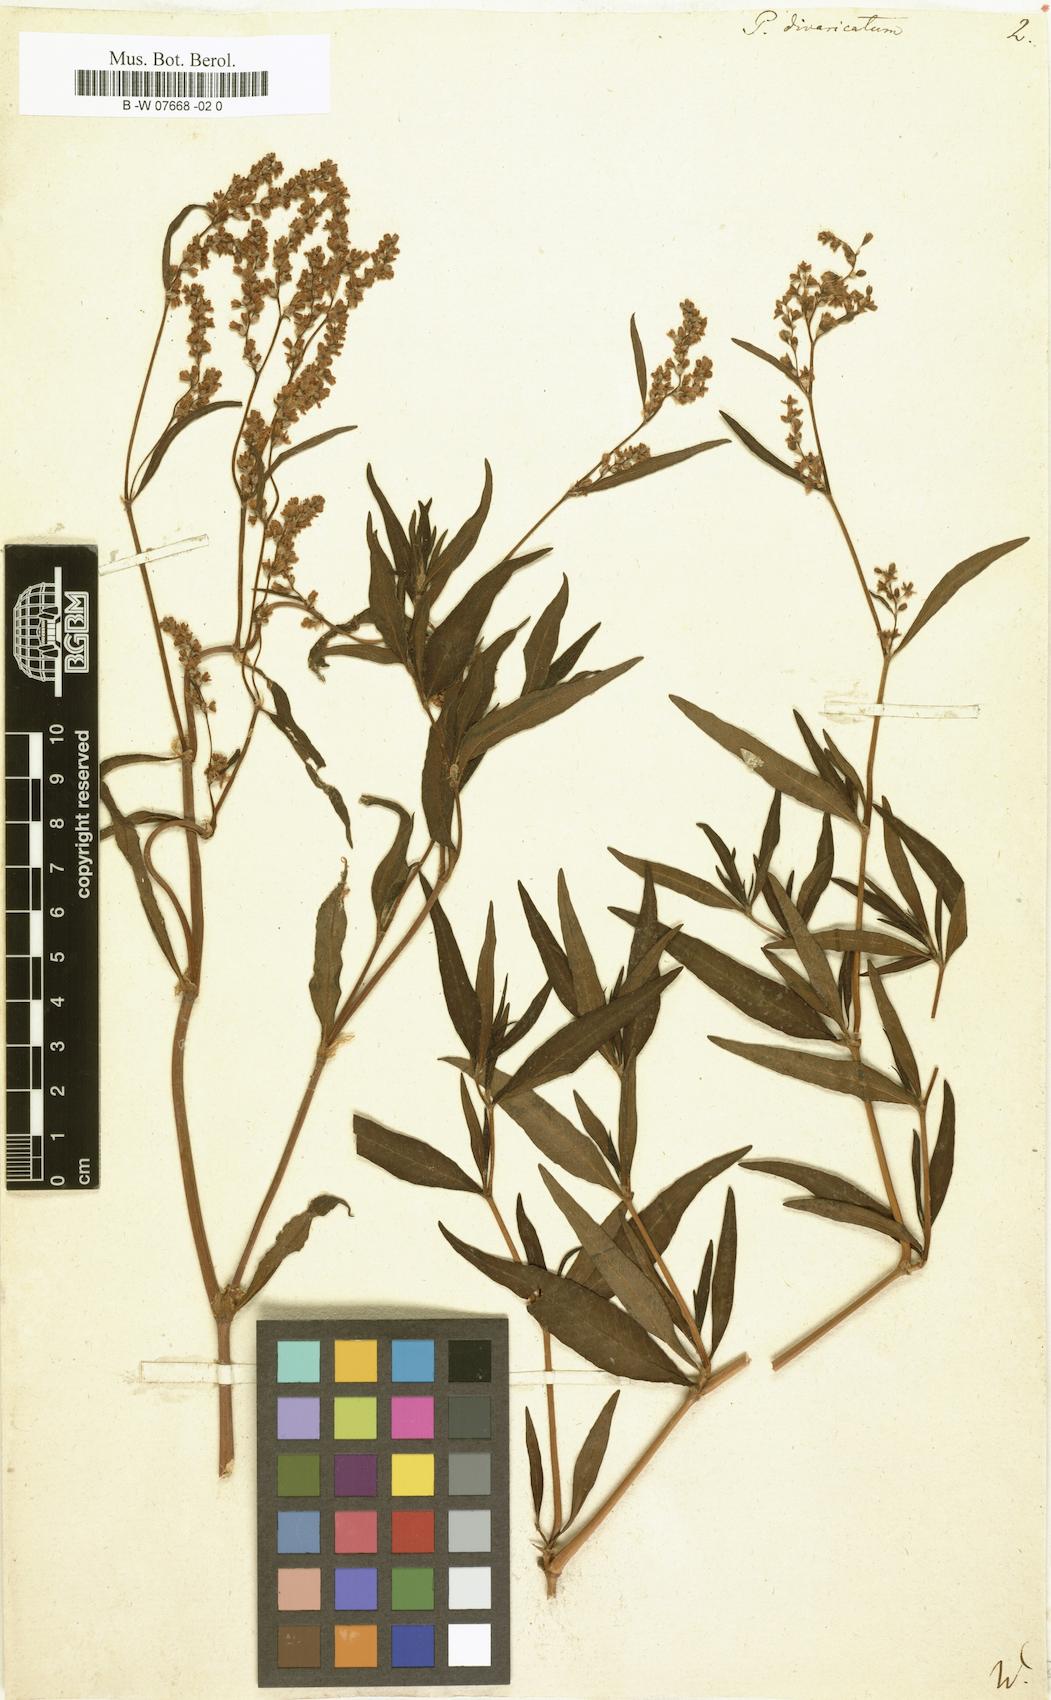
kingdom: Plantae
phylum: Tracheophyta
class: Magnoliopsida
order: Caryophyllales
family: Polygonaceae
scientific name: Polygonaceae
